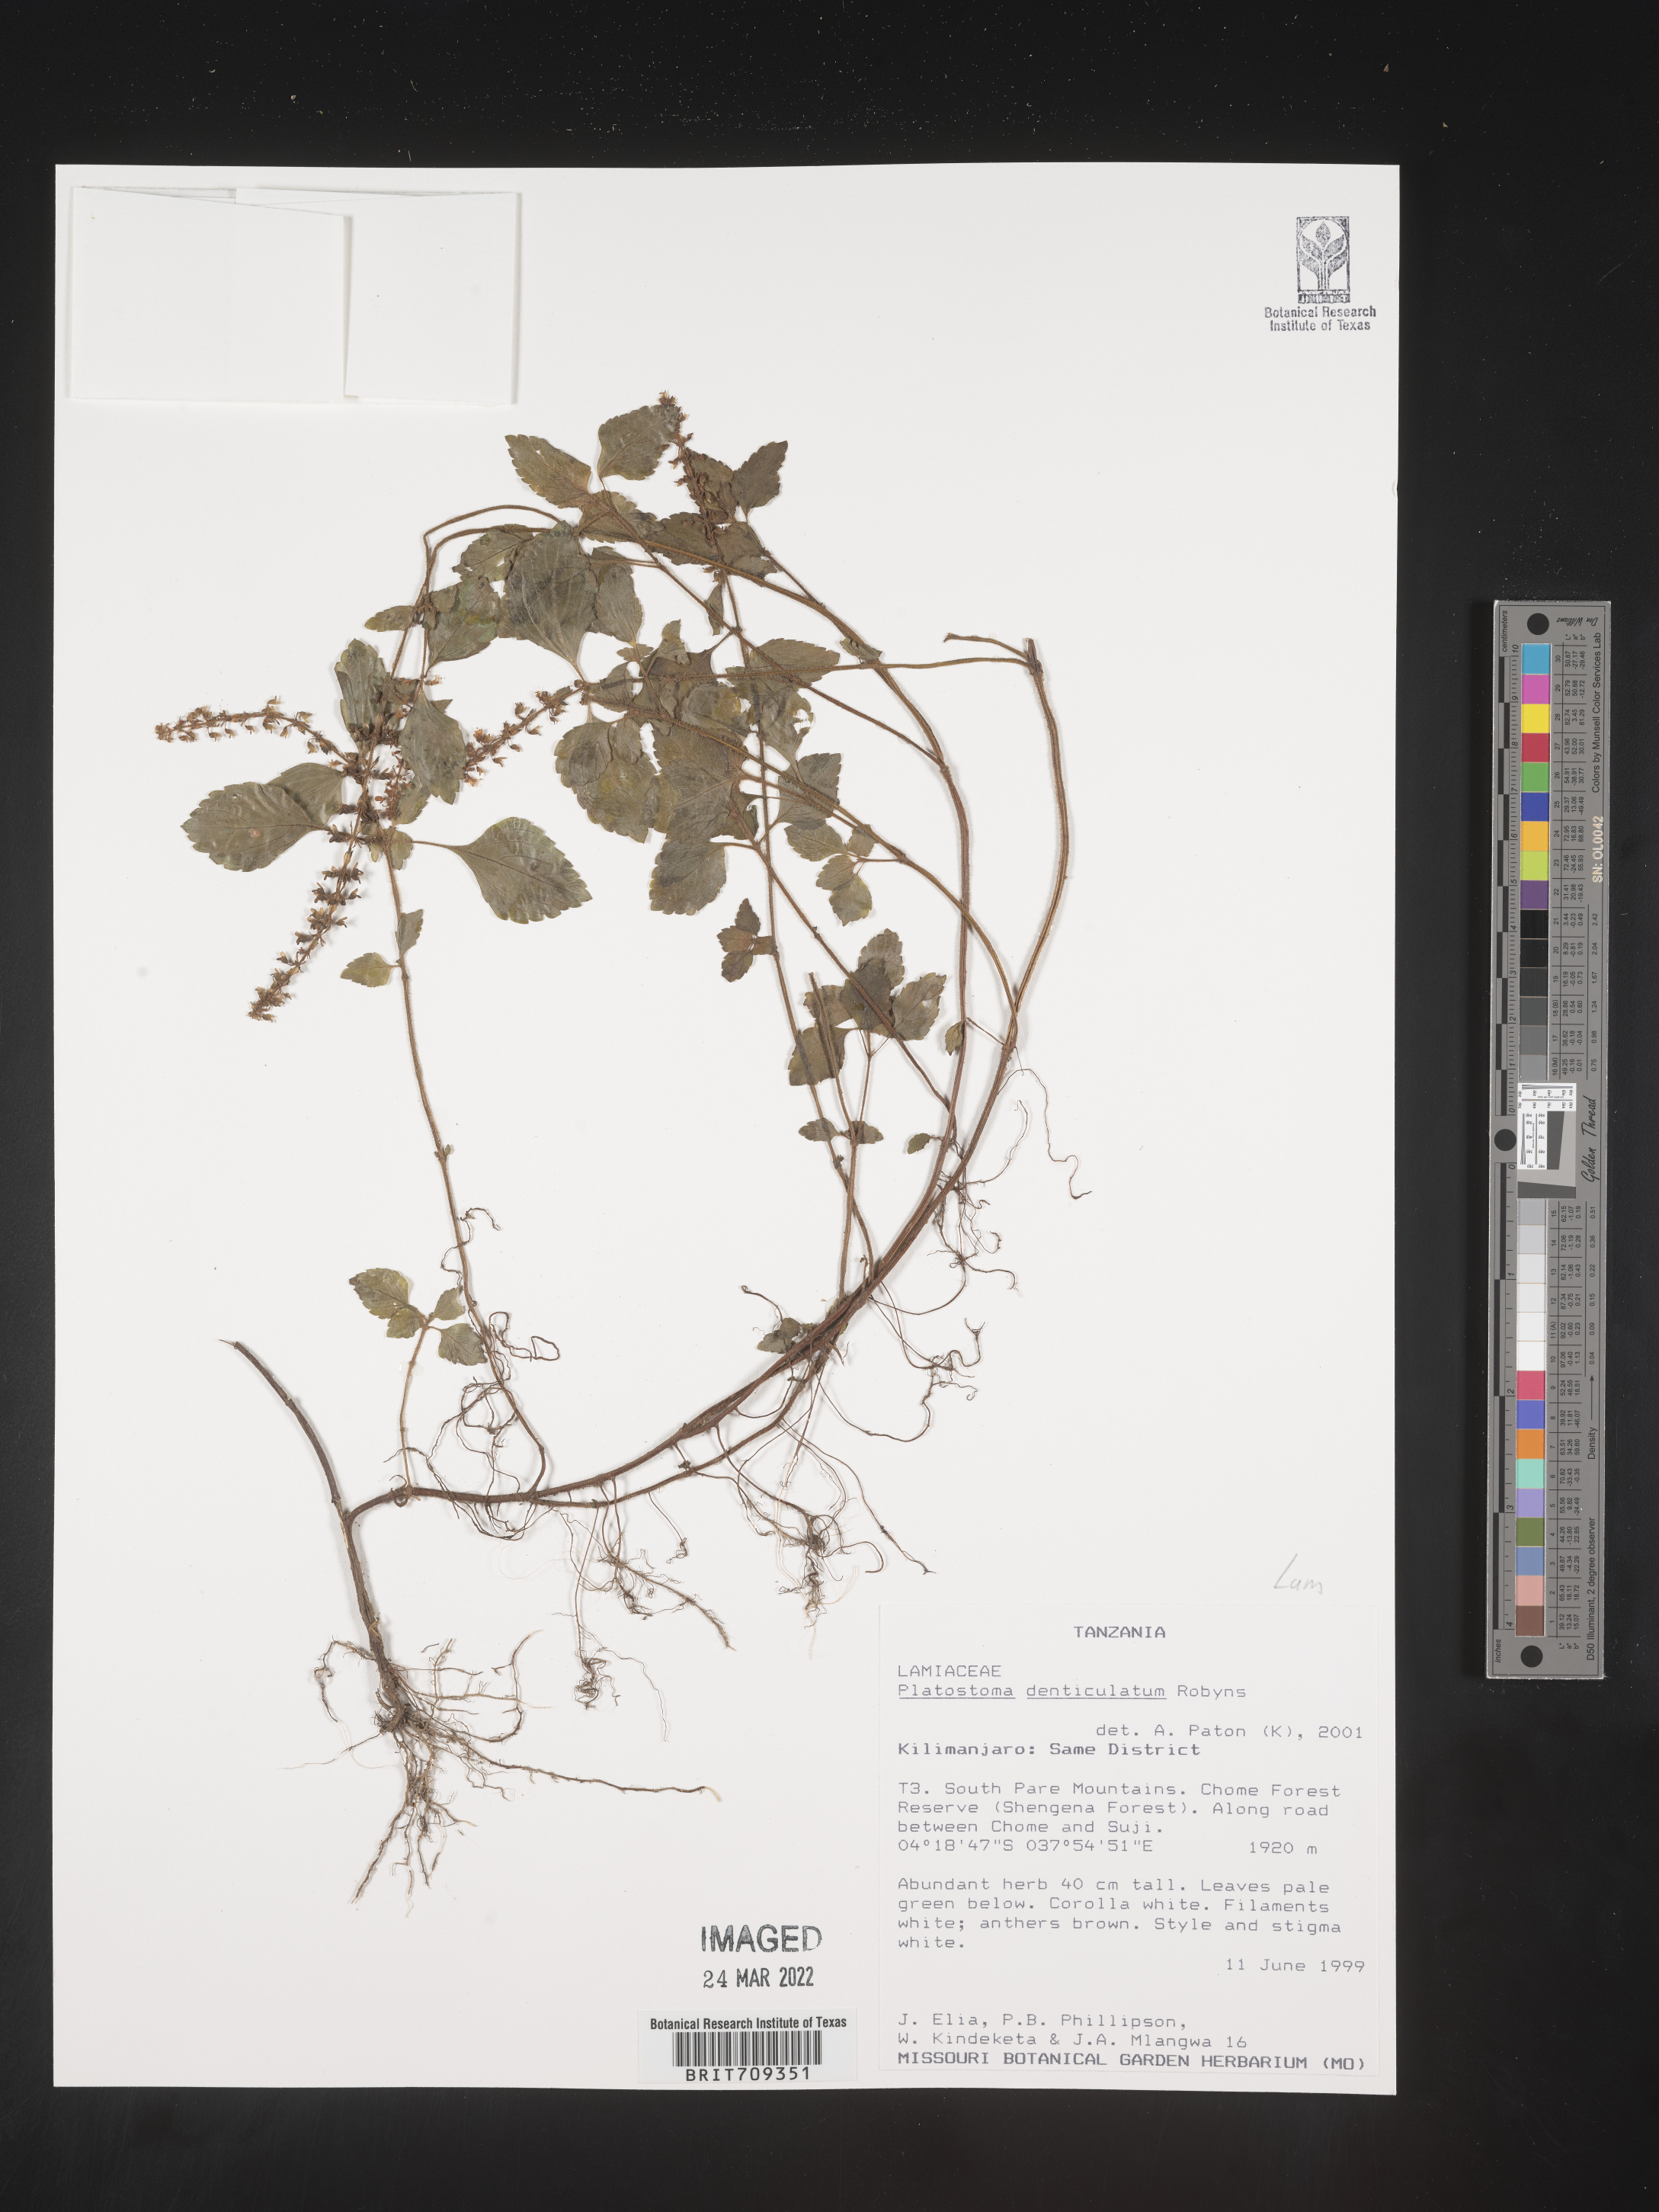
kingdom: Plantae
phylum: Tracheophyta
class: Magnoliopsida
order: Lamiales
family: Lamiaceae
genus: Platystoma
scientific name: Platystoma
